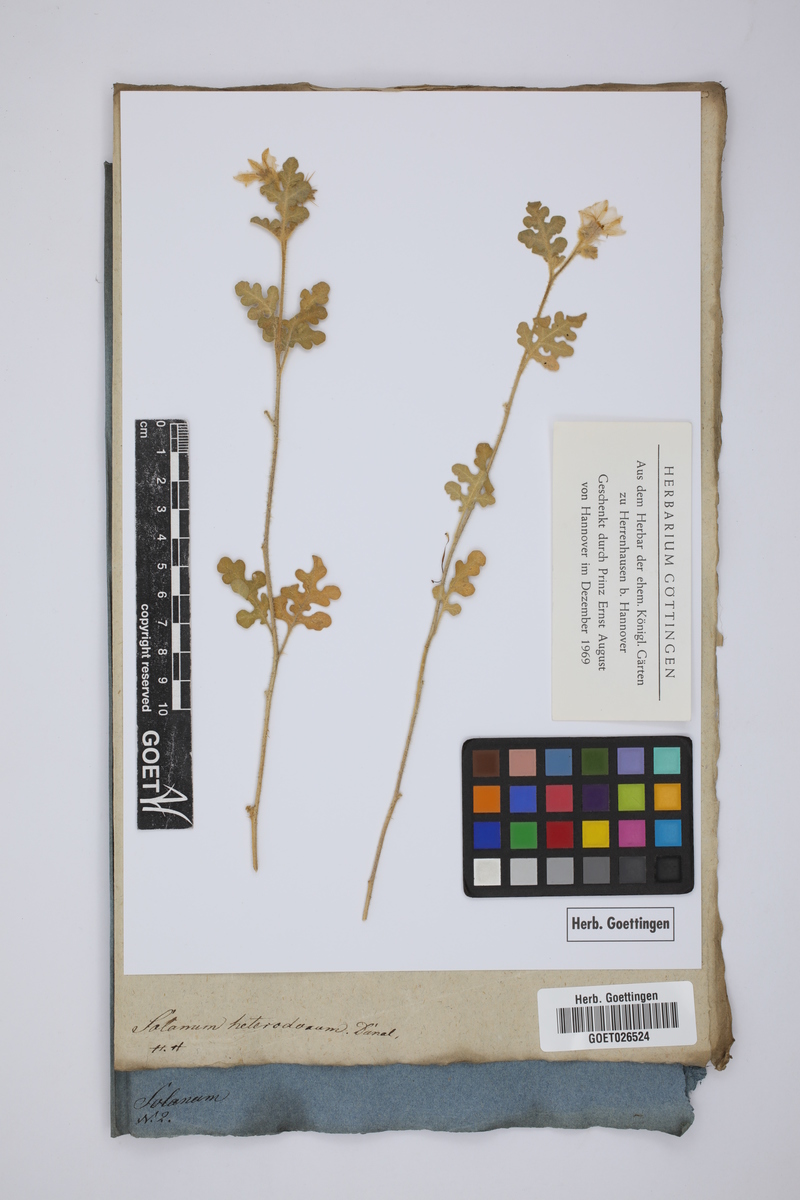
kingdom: Plantae
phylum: Tracheophyta
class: Magnoliopsida
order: Solanales
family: Solanaceae
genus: Solanum
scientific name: Solanum heterodoxum
